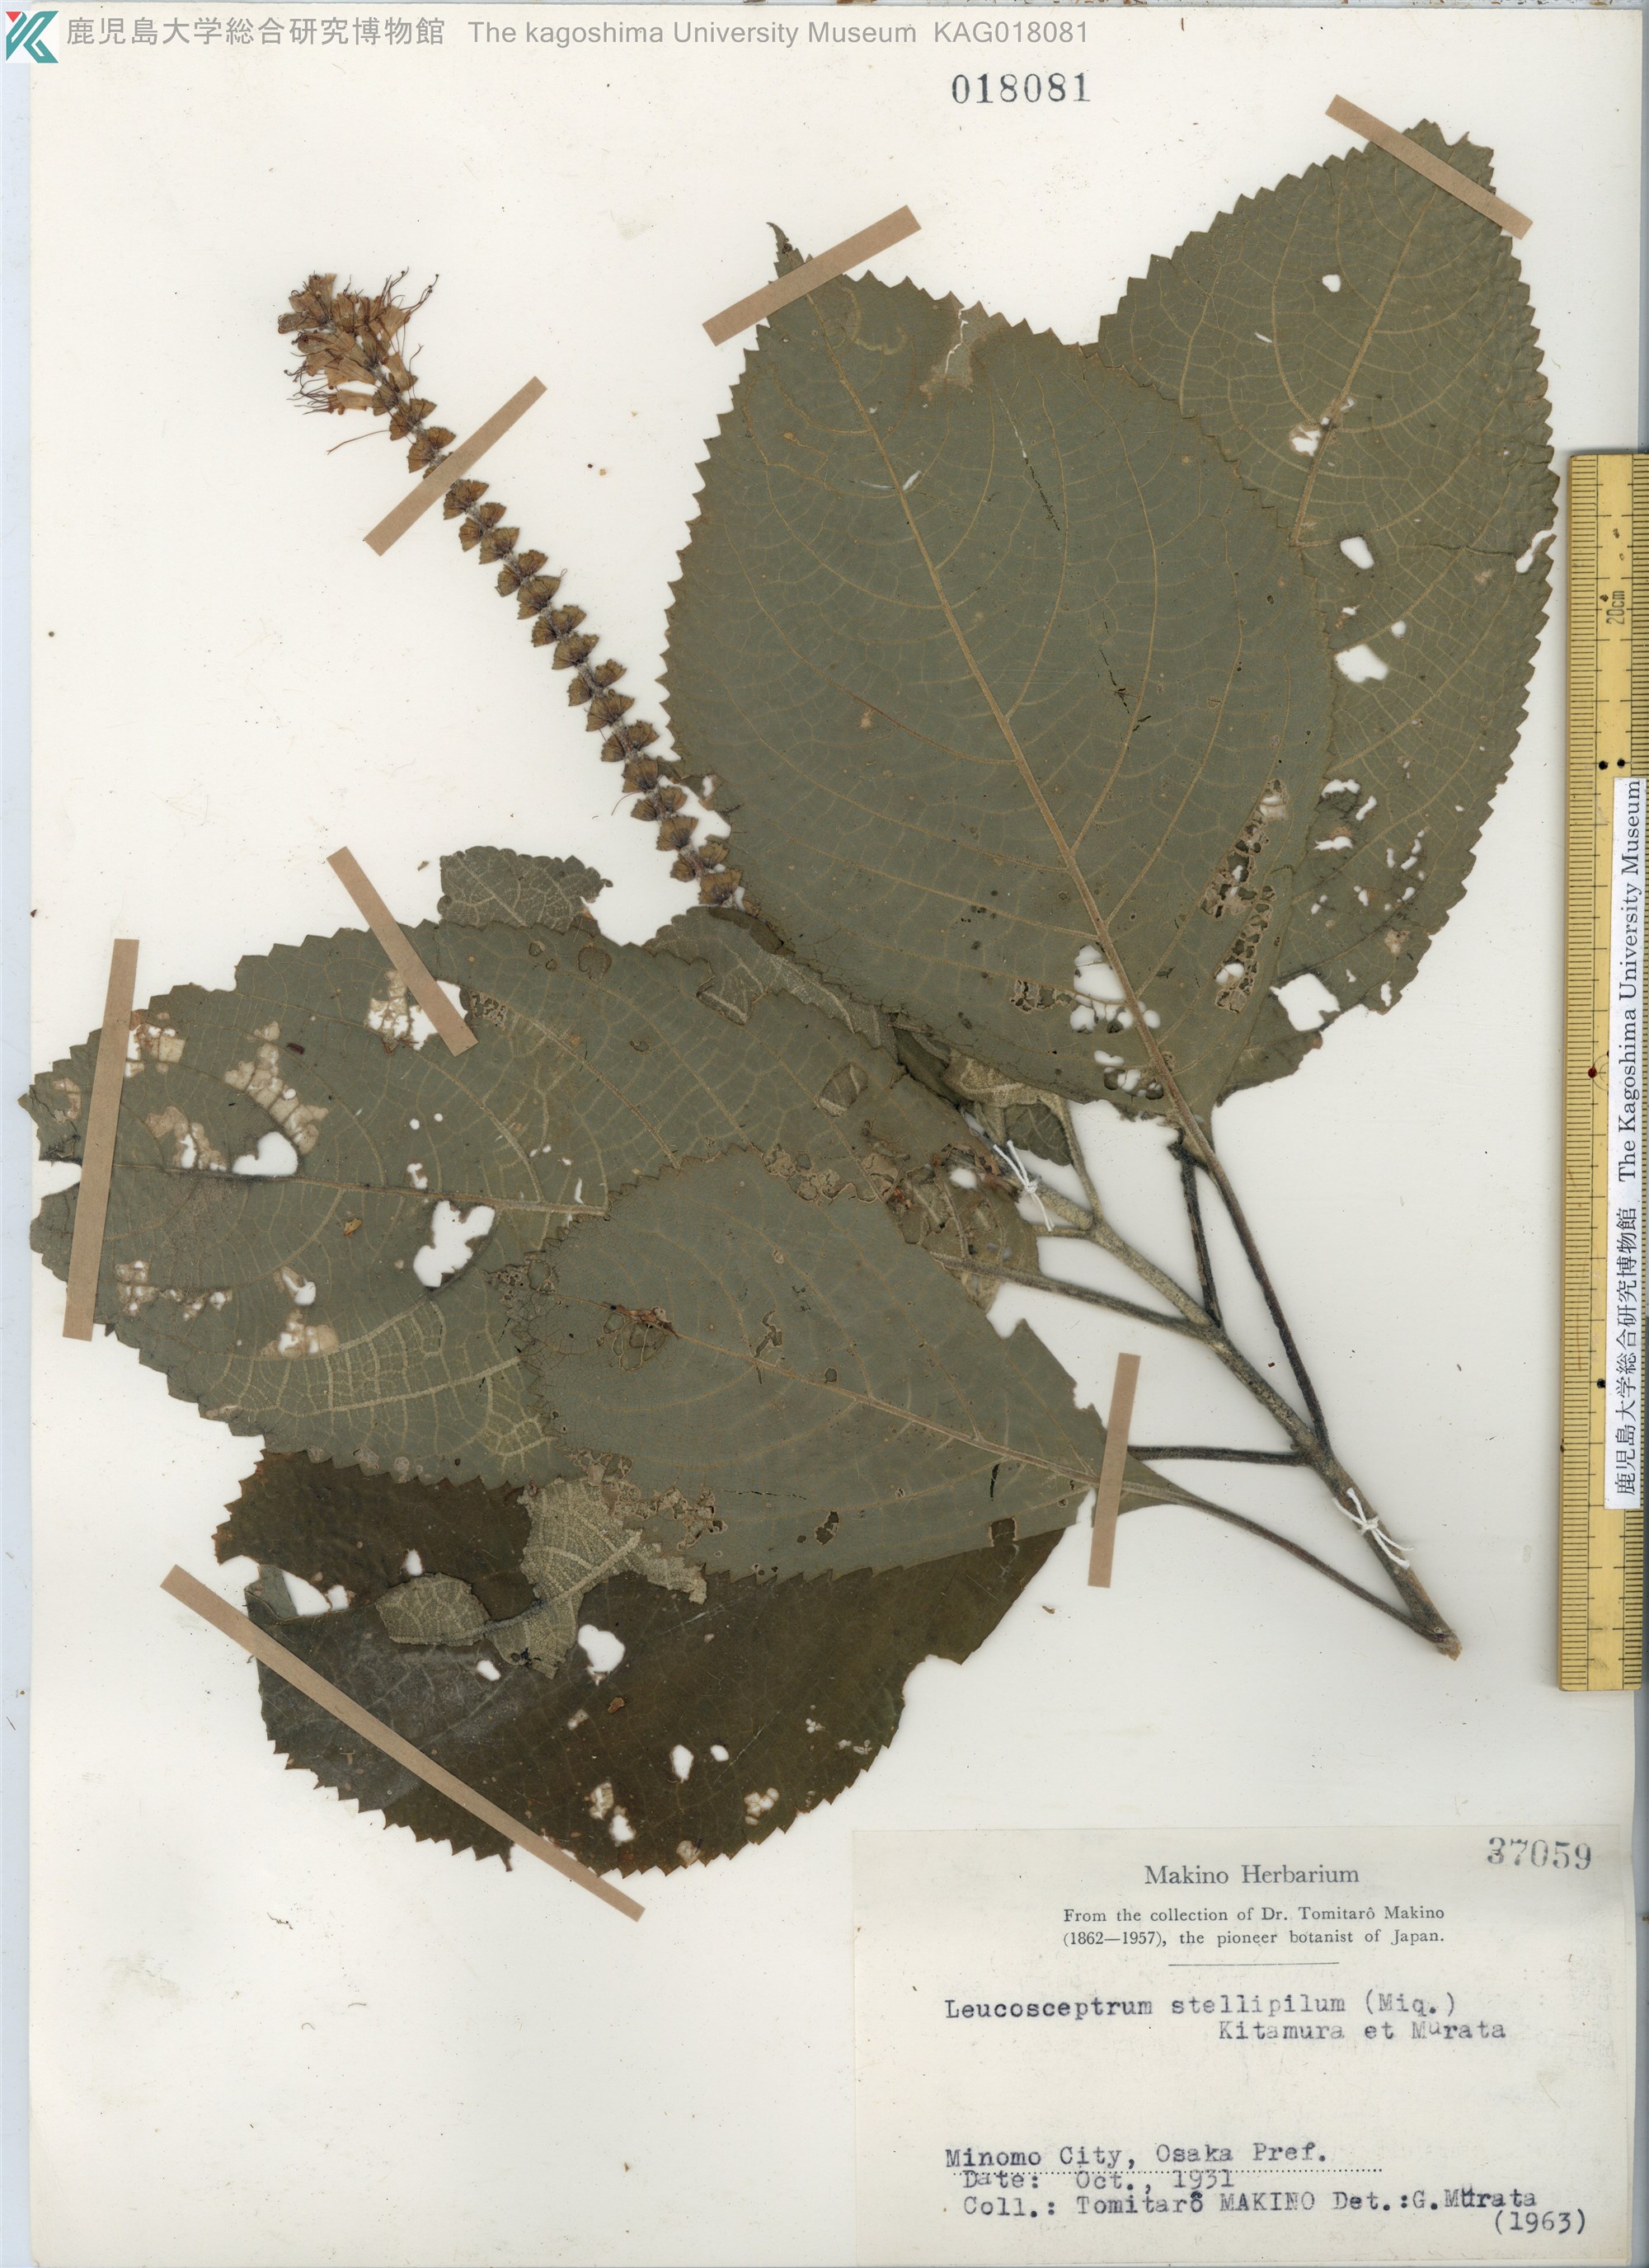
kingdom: Plantae
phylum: Tracheophyta
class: Magnoliopsida
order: Lamiales
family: Lamiaceae
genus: Comanthosphace
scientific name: Comanthosphace stellipila
